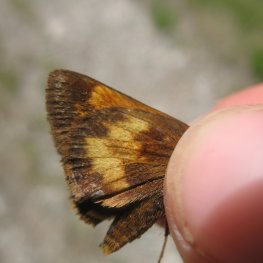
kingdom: Animalia
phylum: Arthropoda
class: Insecta
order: Lepidoptera
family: Hesperiidae
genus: Lon
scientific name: Lon hobomok
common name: Hobomok Skipper
